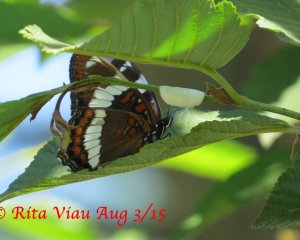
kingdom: Animalia
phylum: Arthropoda
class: Insecta
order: Lepidoptera
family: Nymphalidae
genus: Limenitis
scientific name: Limenitis arthemis
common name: Red-spotted Admiral
